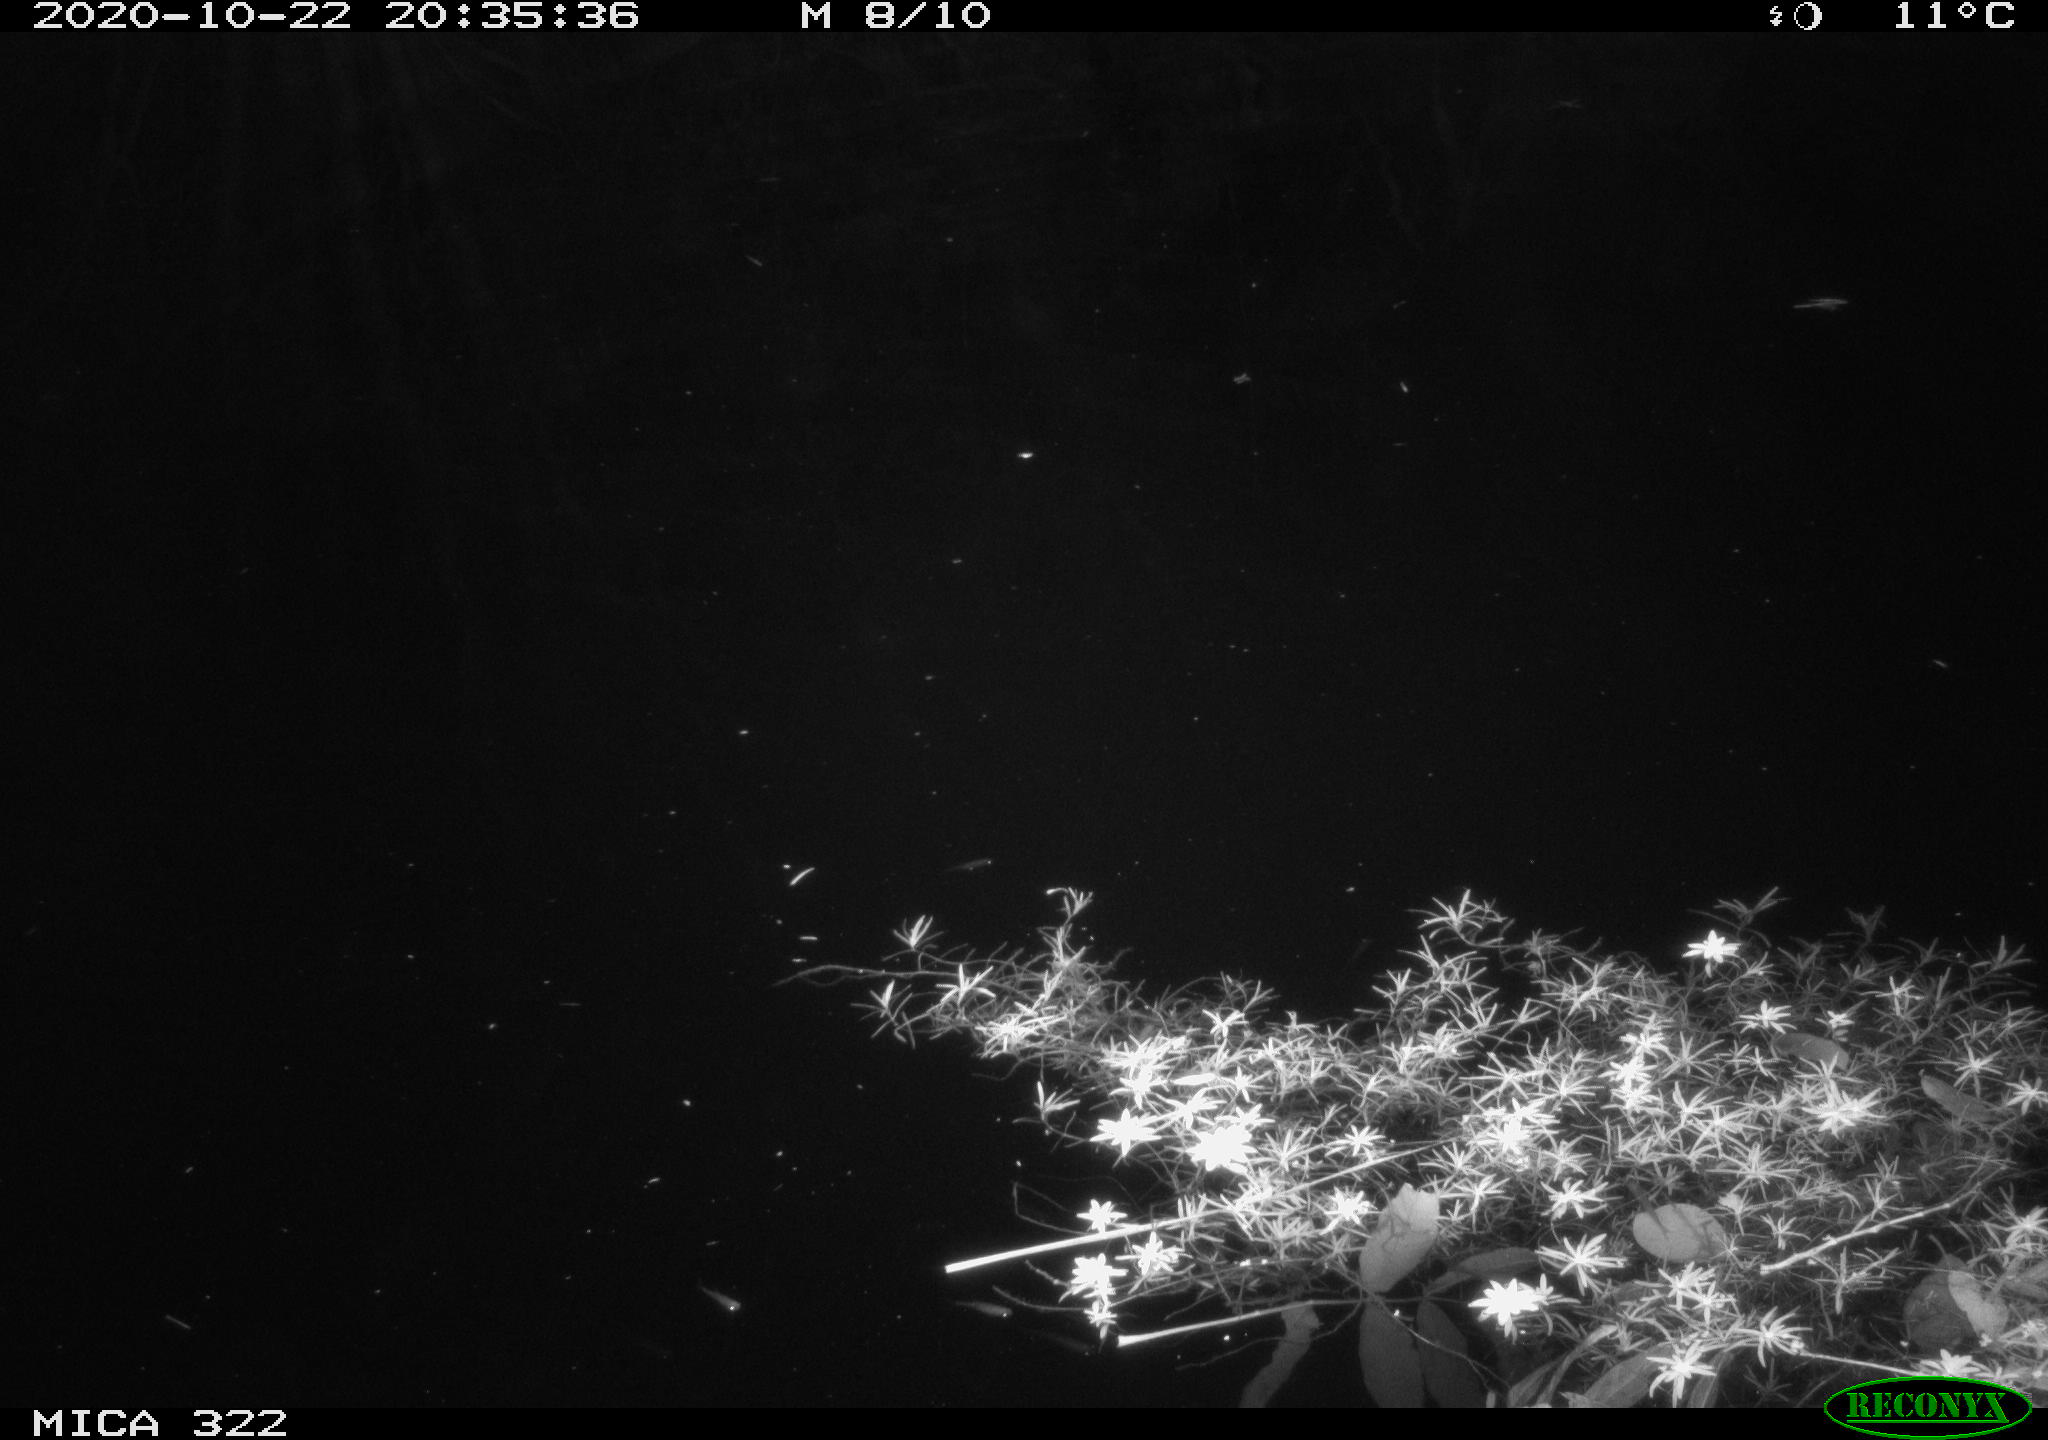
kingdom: Animalia
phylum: Chordata
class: Mammalia
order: Rodentia
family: Muridae
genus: Rattus
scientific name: Rattus norvegicus
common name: Brown rat
